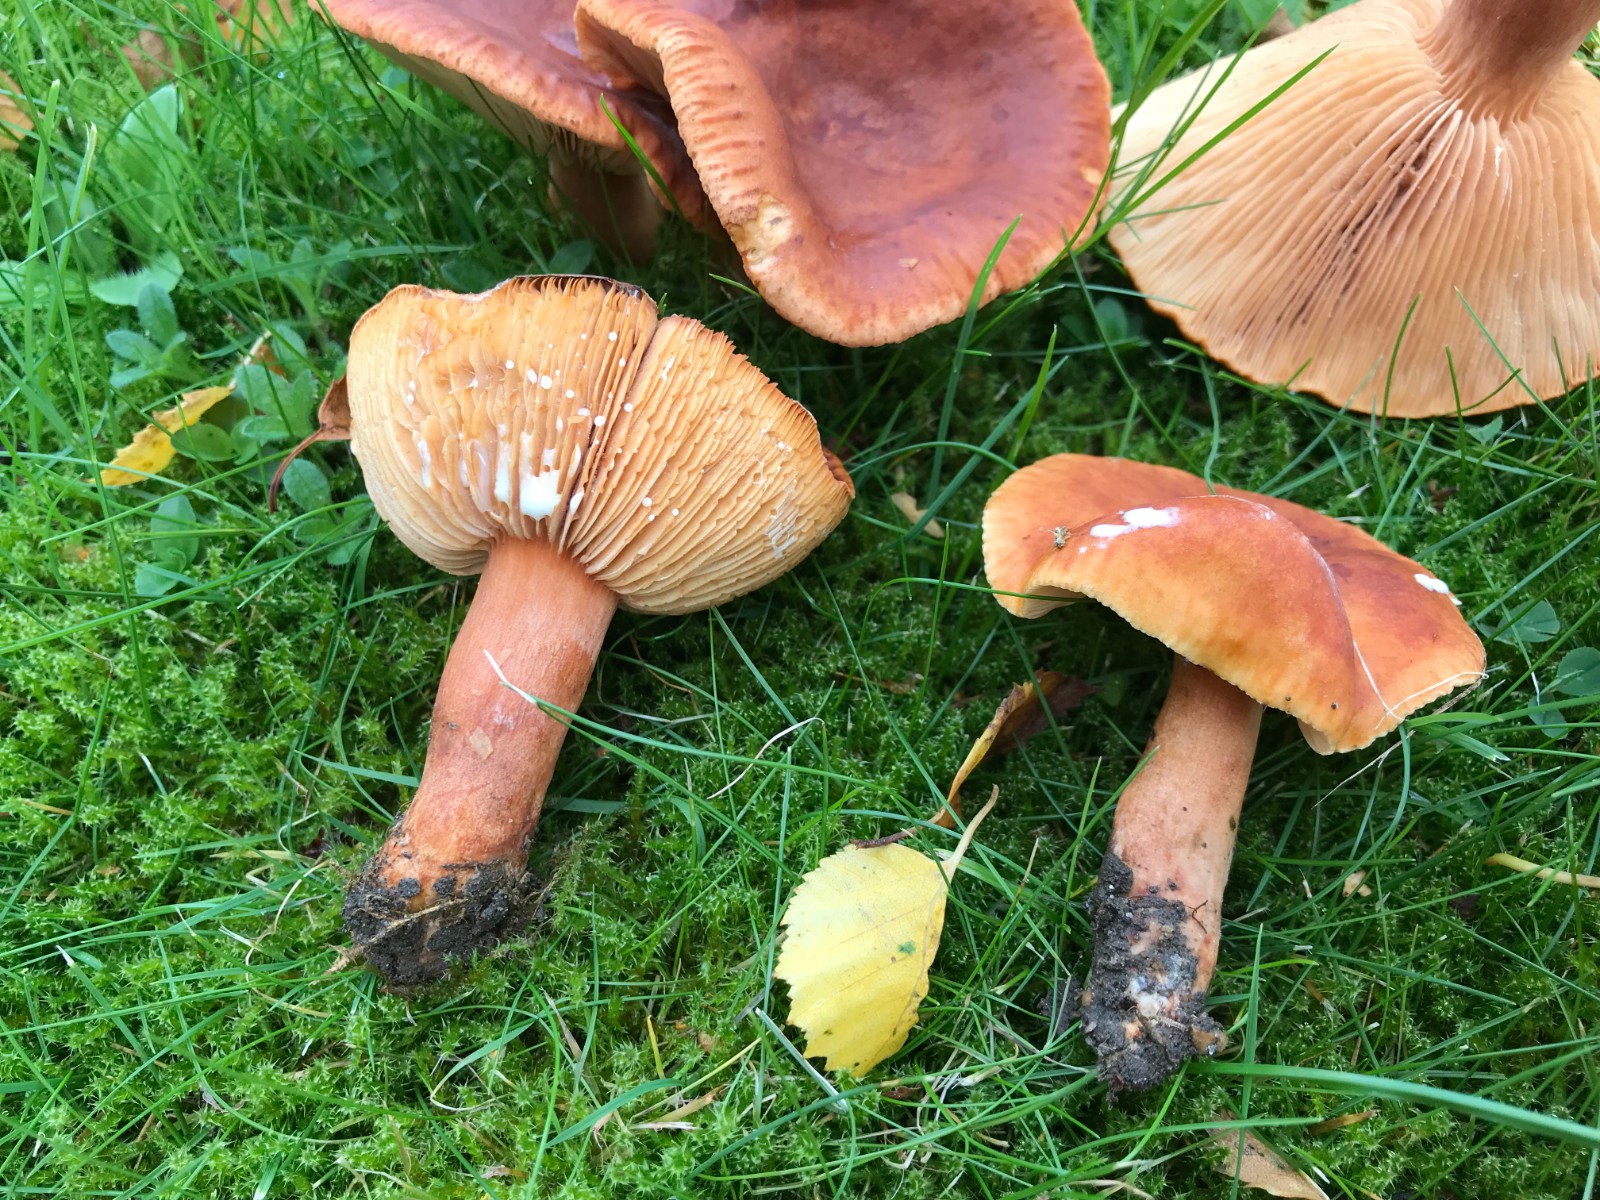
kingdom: Fungi
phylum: Basidiomycota
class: Agaricomycetes
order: Russulales
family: Russulaceae
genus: Lactarius
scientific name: Lactarius fulvissimus
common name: ræve-mælkehat
